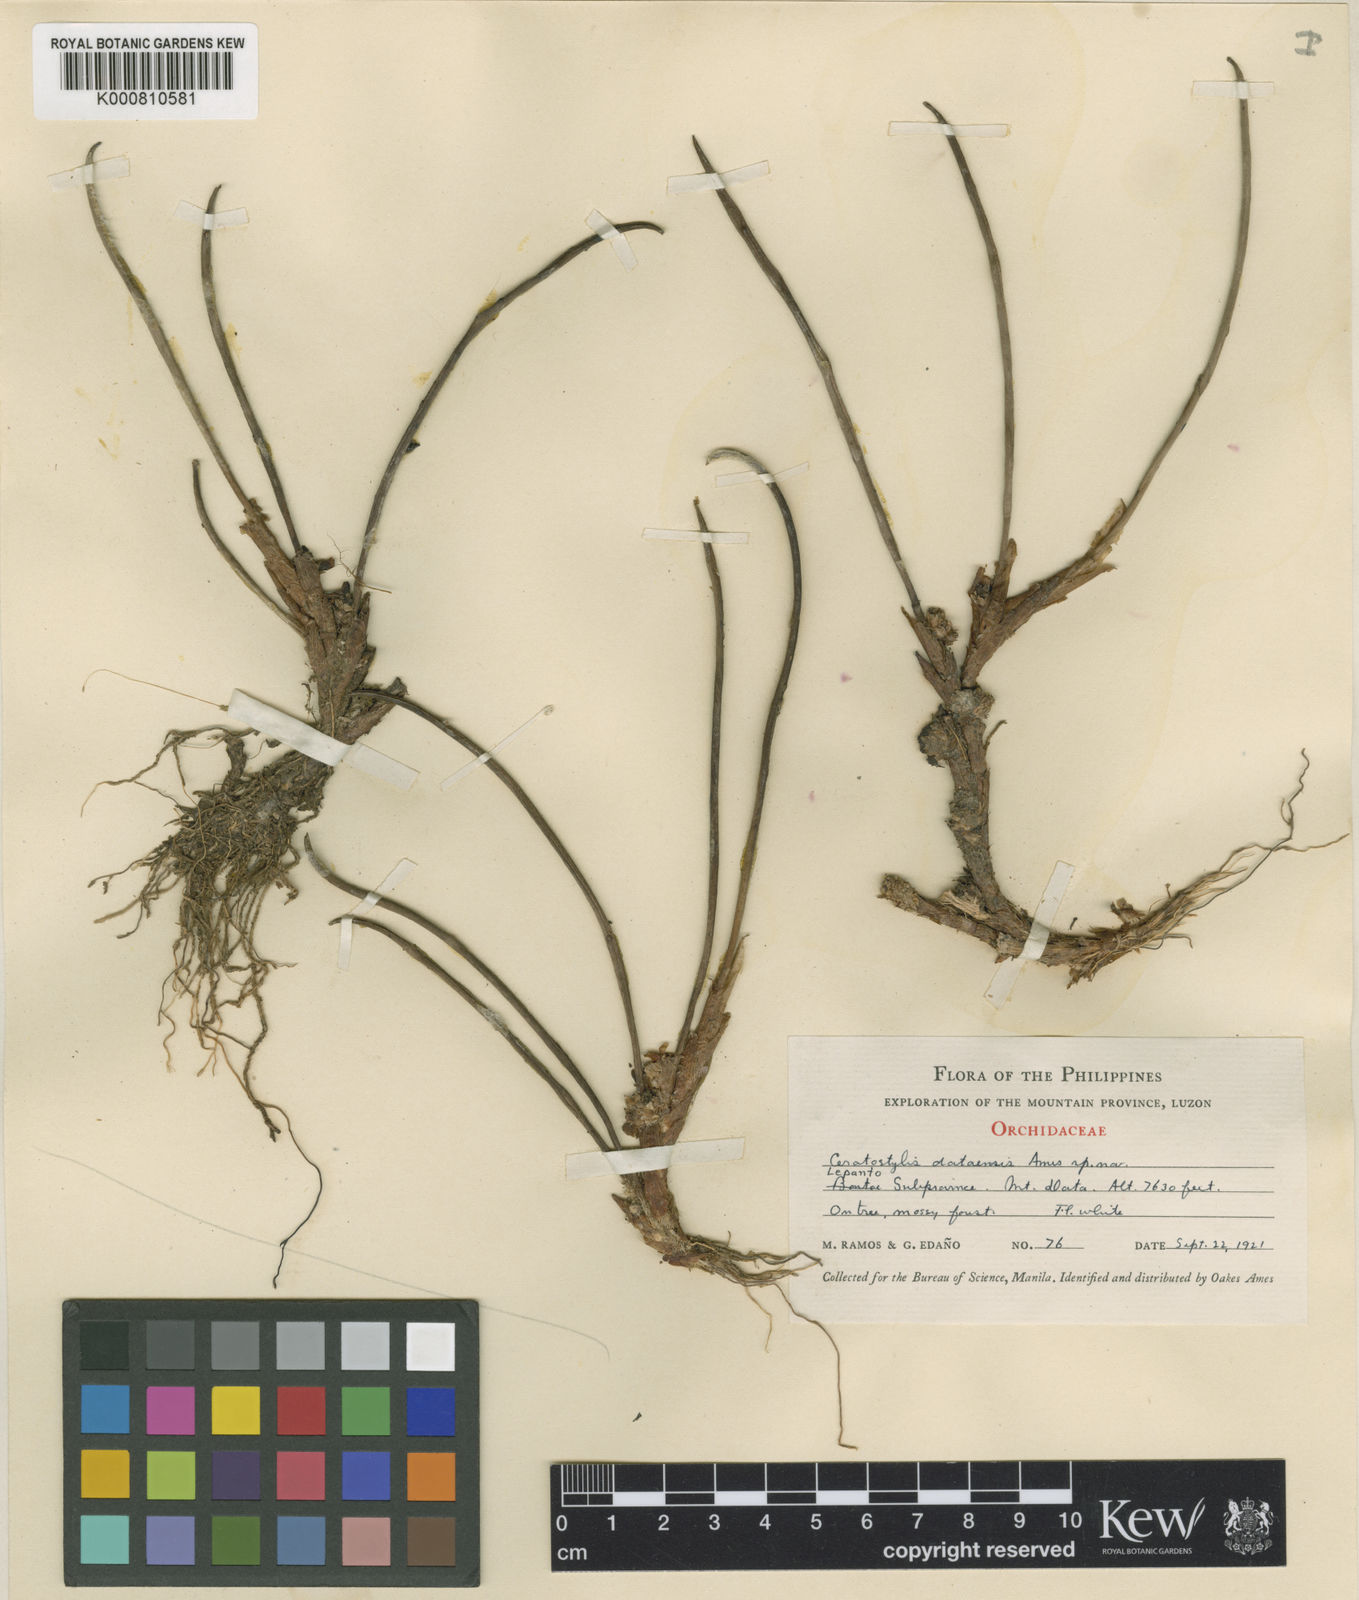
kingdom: Plantae
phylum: Tracheophyta
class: Liliopsida
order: Asparagales
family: Orchidaceae
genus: Ceratostylis
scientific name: Ceratostylis dataensis
